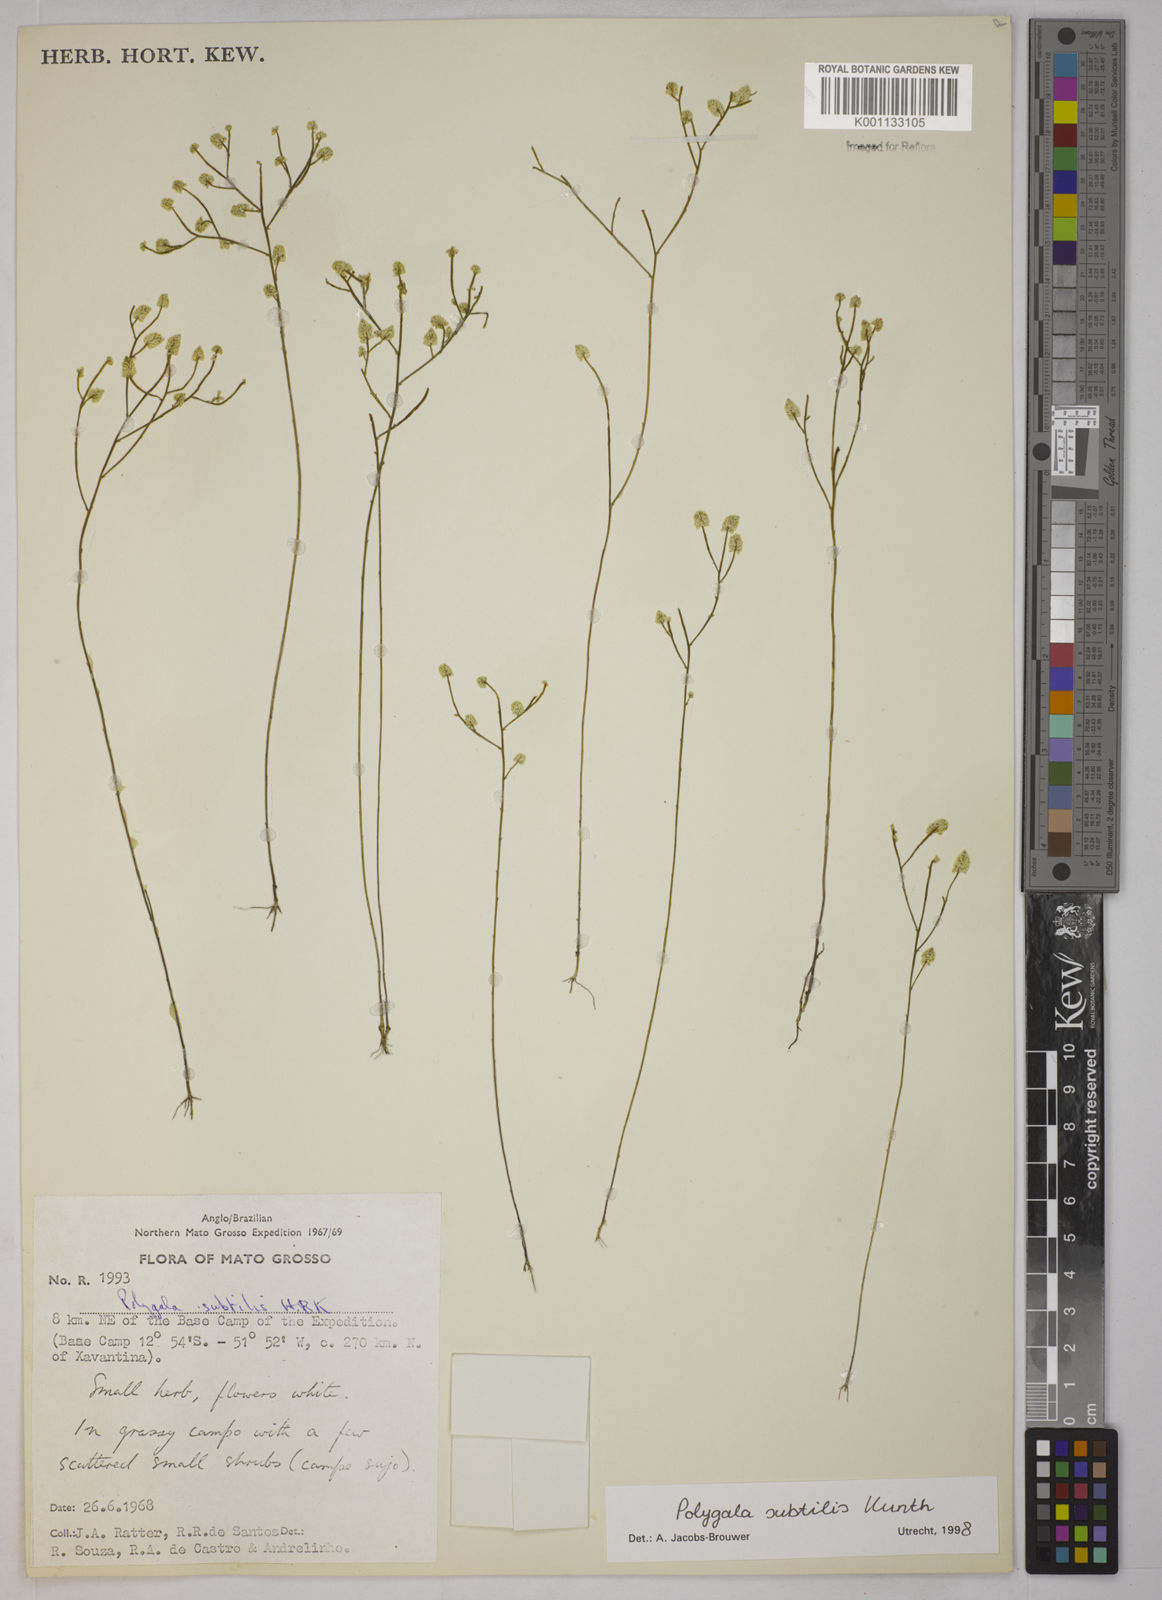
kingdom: Plantae
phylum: Tracheophyta
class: Magnoliopsida
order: Fabales
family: Polygalaceae
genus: Polygala
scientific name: Polygala subtilis
